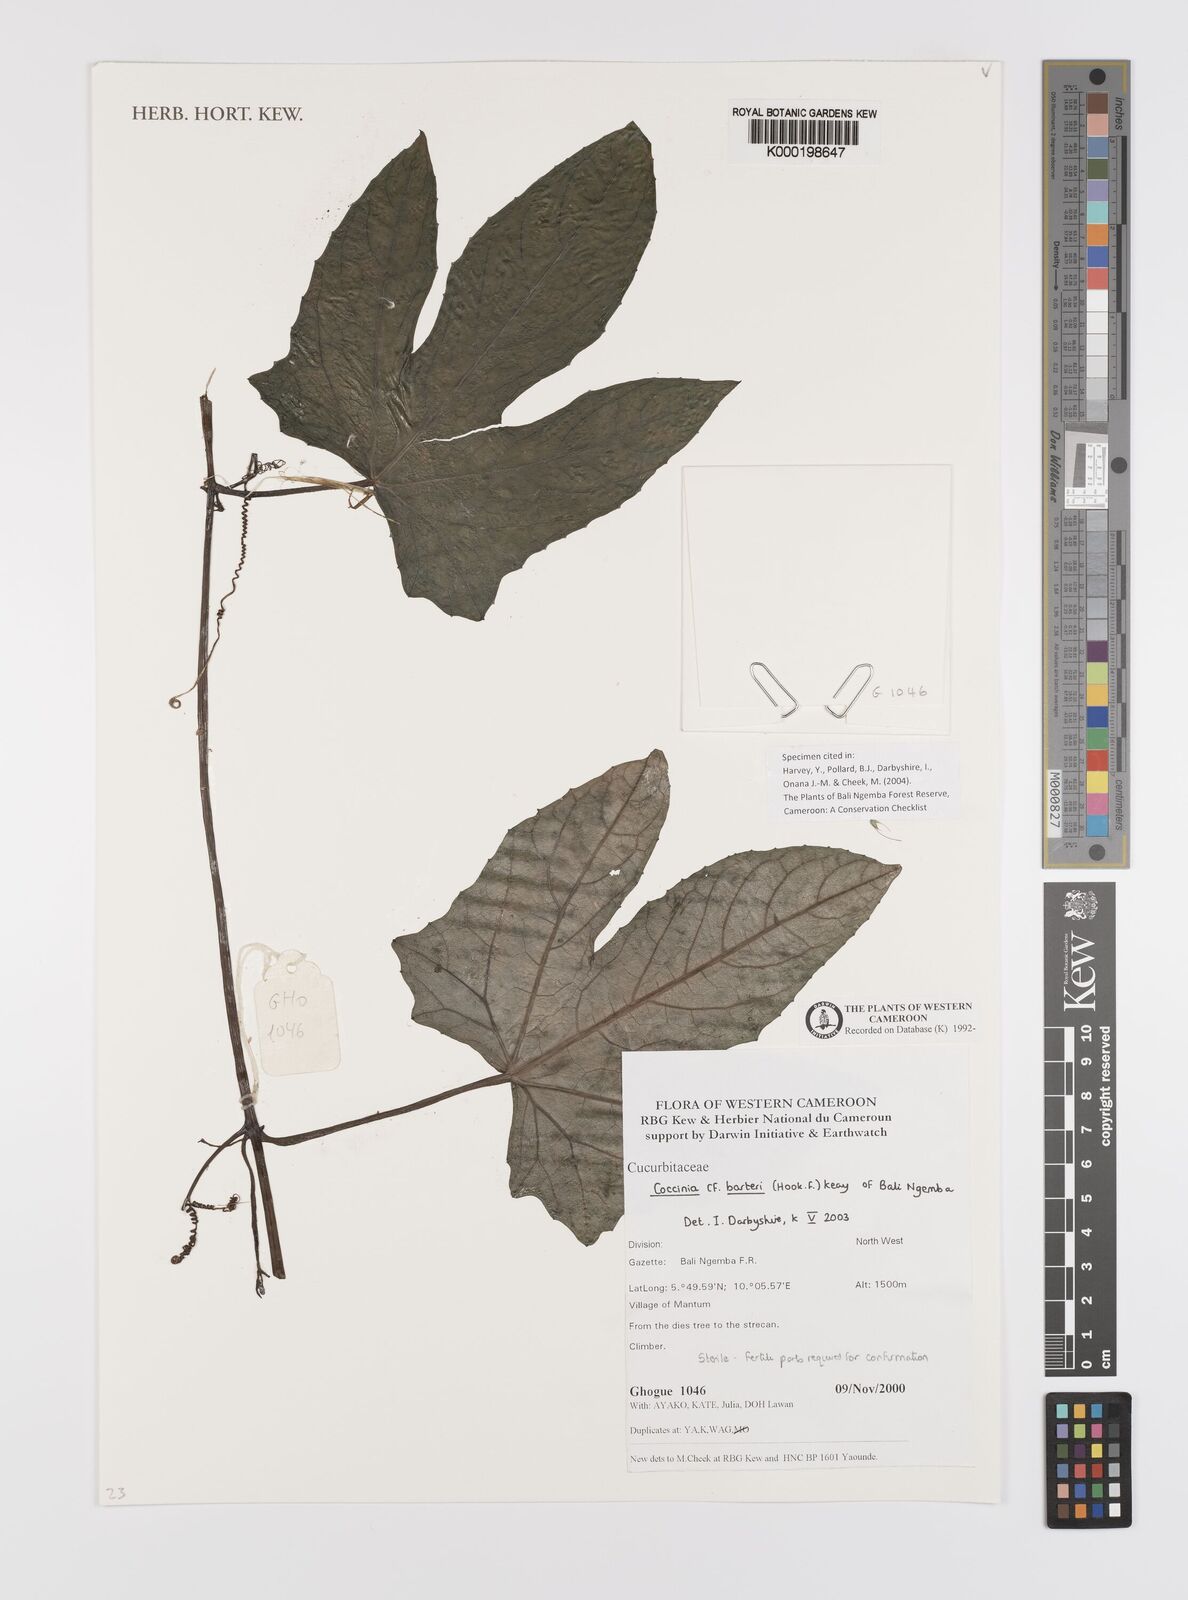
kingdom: Plantae
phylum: Tracheophyta
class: Magnoliopsida
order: Cucurbitales
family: Cucurbitaceae
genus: Coccinia
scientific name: Coccinia
